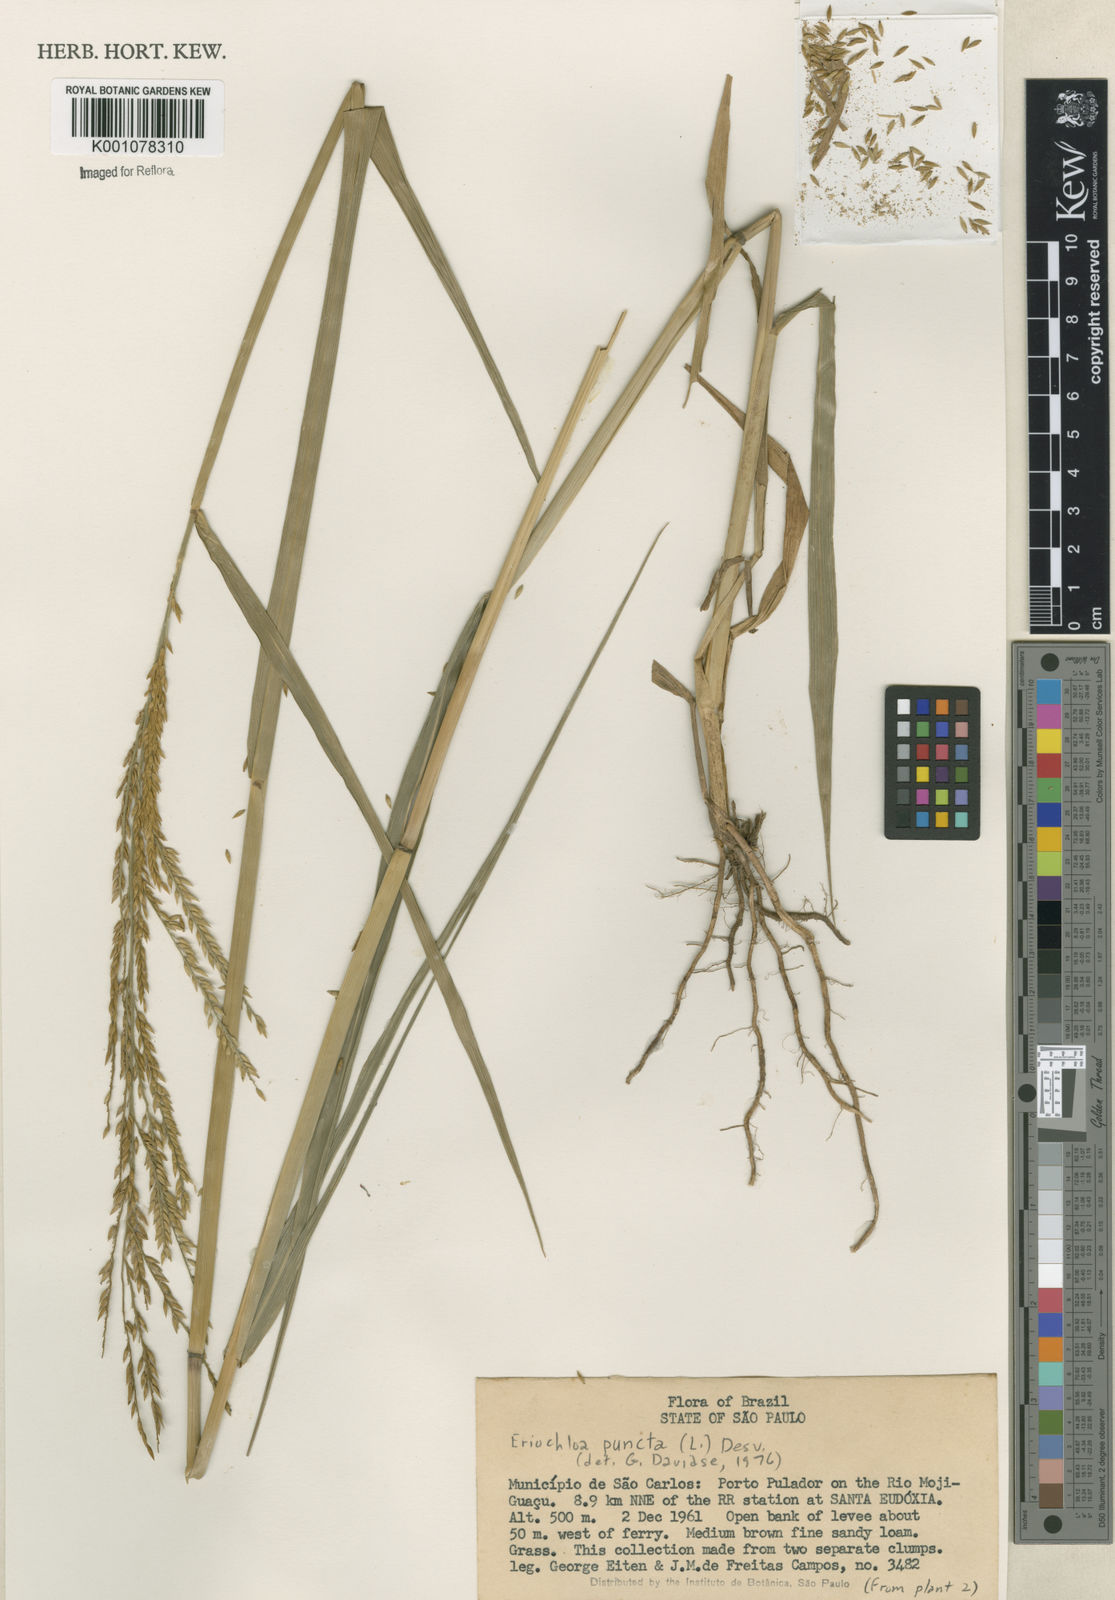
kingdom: Plantae
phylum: Tracheophyta
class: Liliopsida
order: Poales
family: Poaceae
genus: Eriochloa
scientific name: Eriochloa punctata
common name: Louisiana cupgrass
